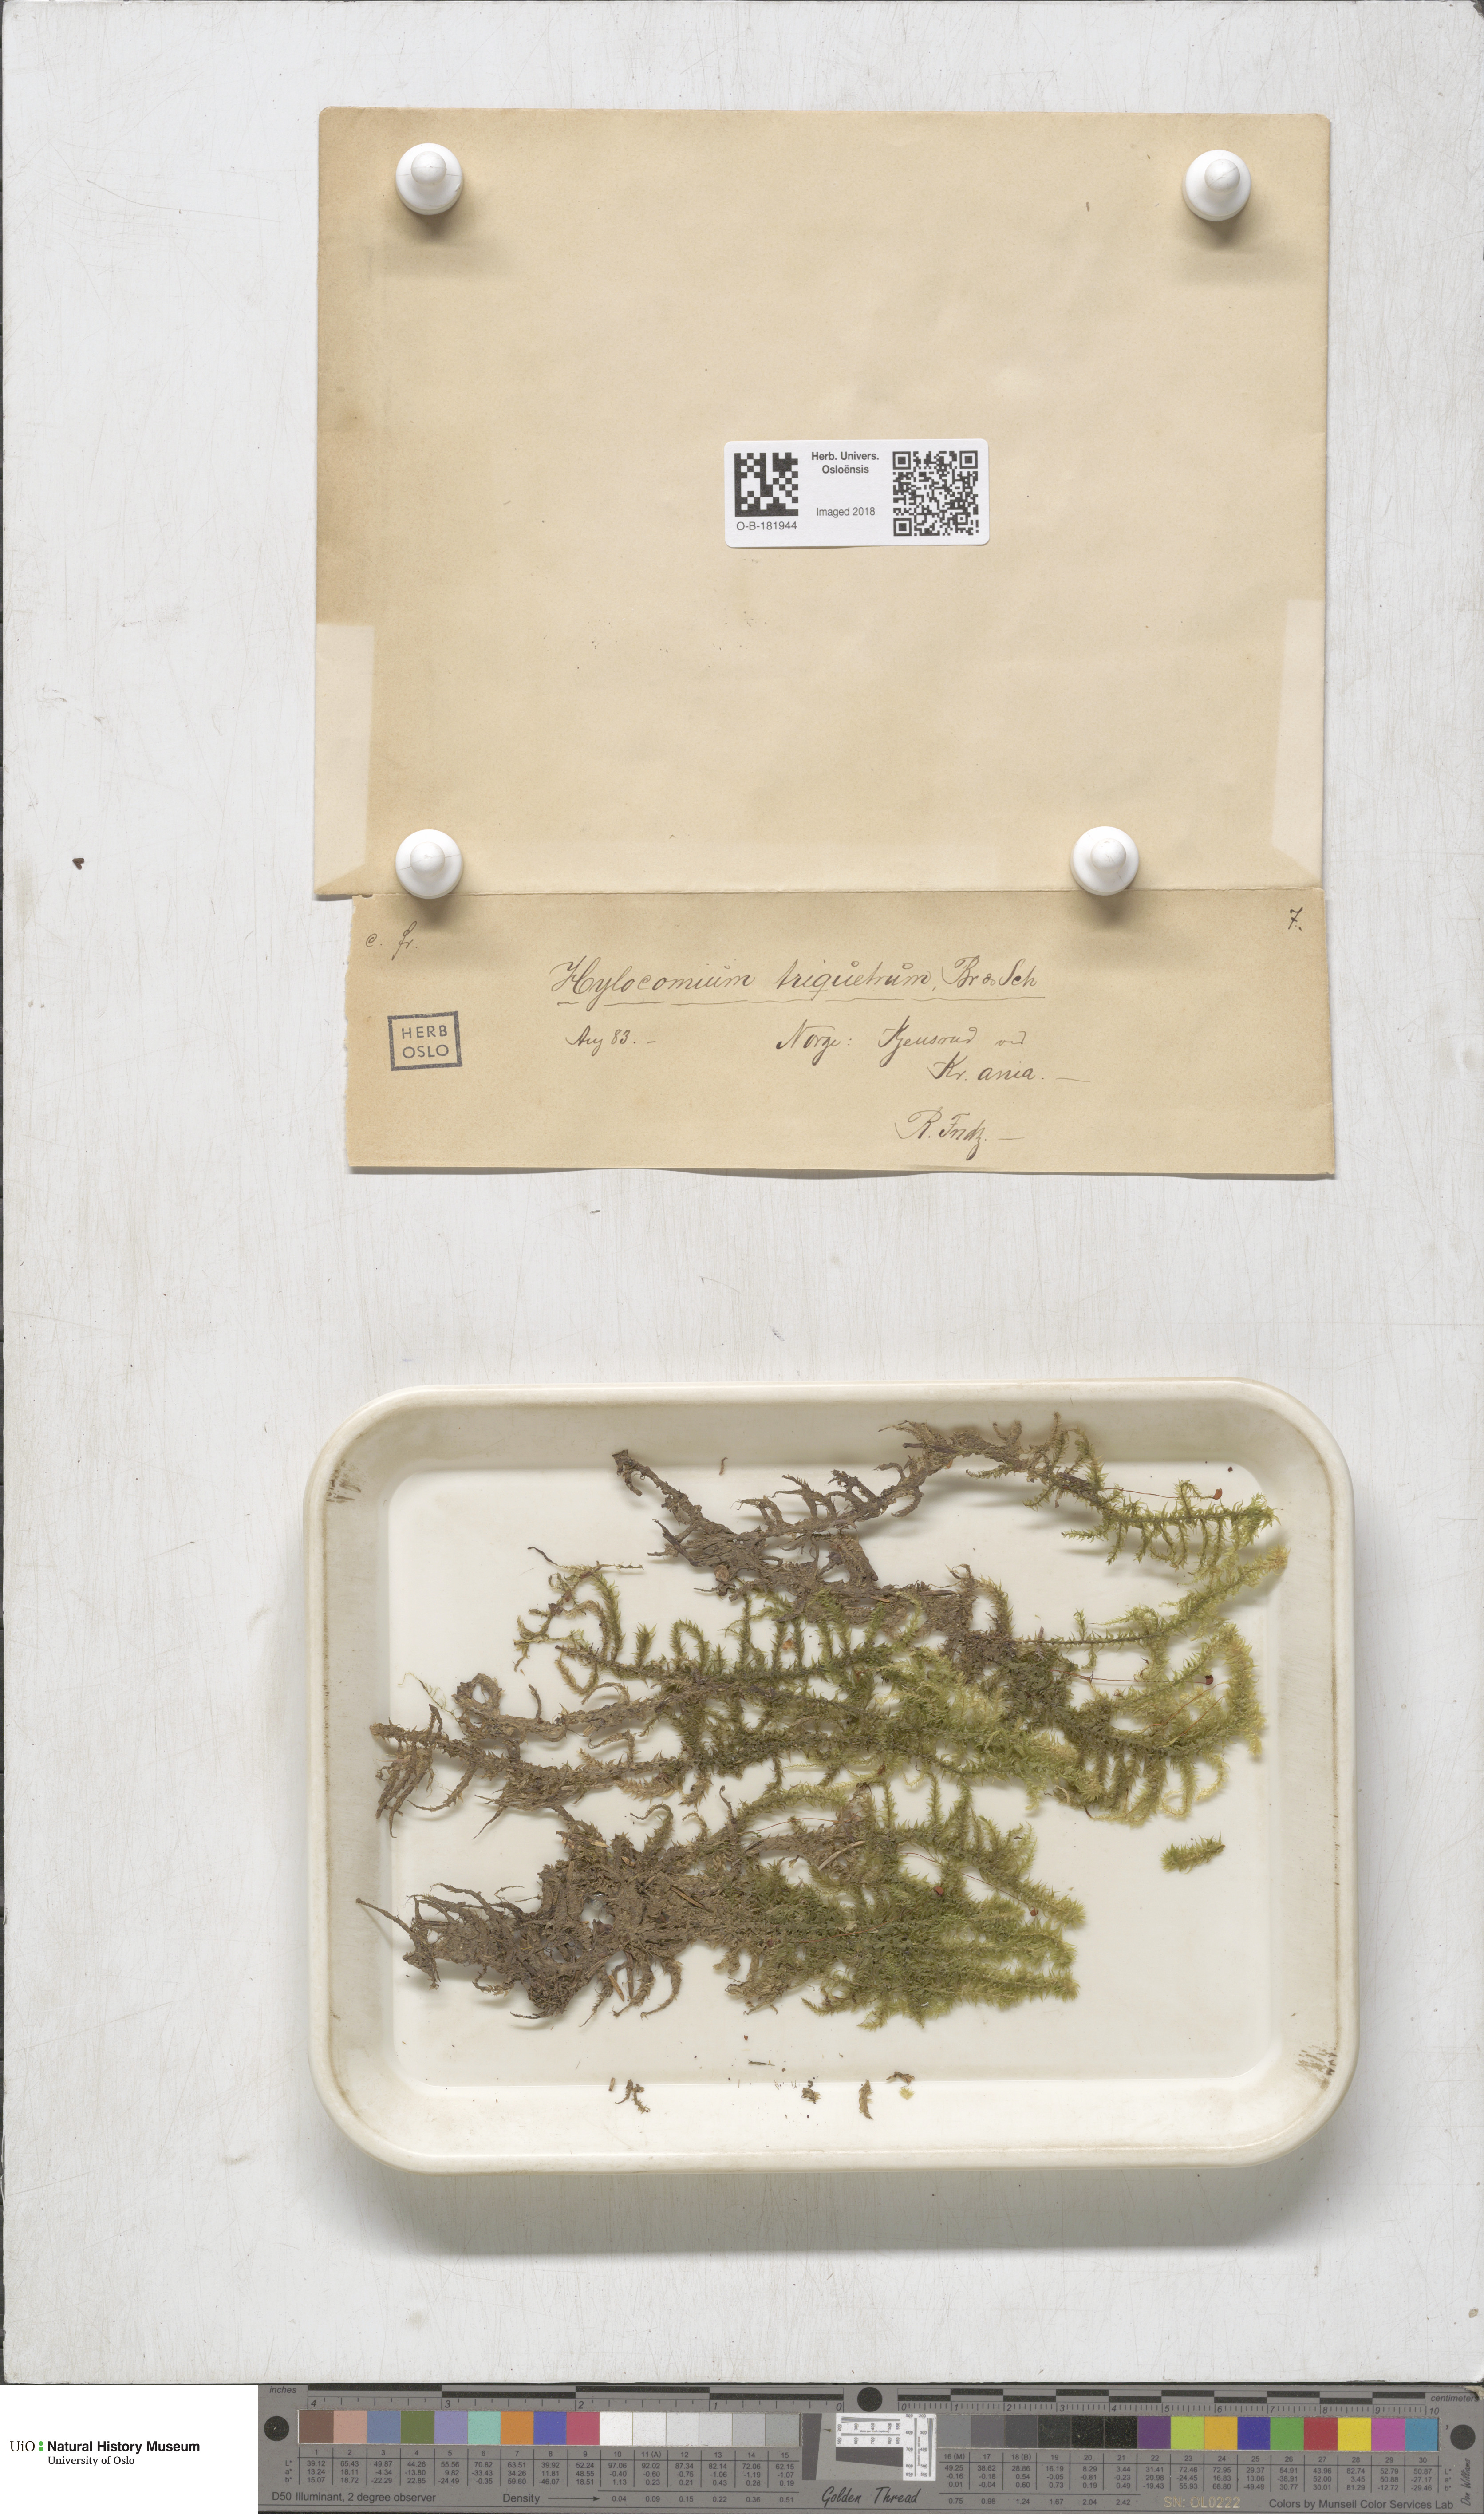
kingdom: Plantae
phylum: Bryophyta
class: Bryopsida
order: Hypnales
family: Hylocomiaceae
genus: Hylocomiadelphus
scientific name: Hylocomiadelphus triquetrus
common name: Rough goose neck moss
